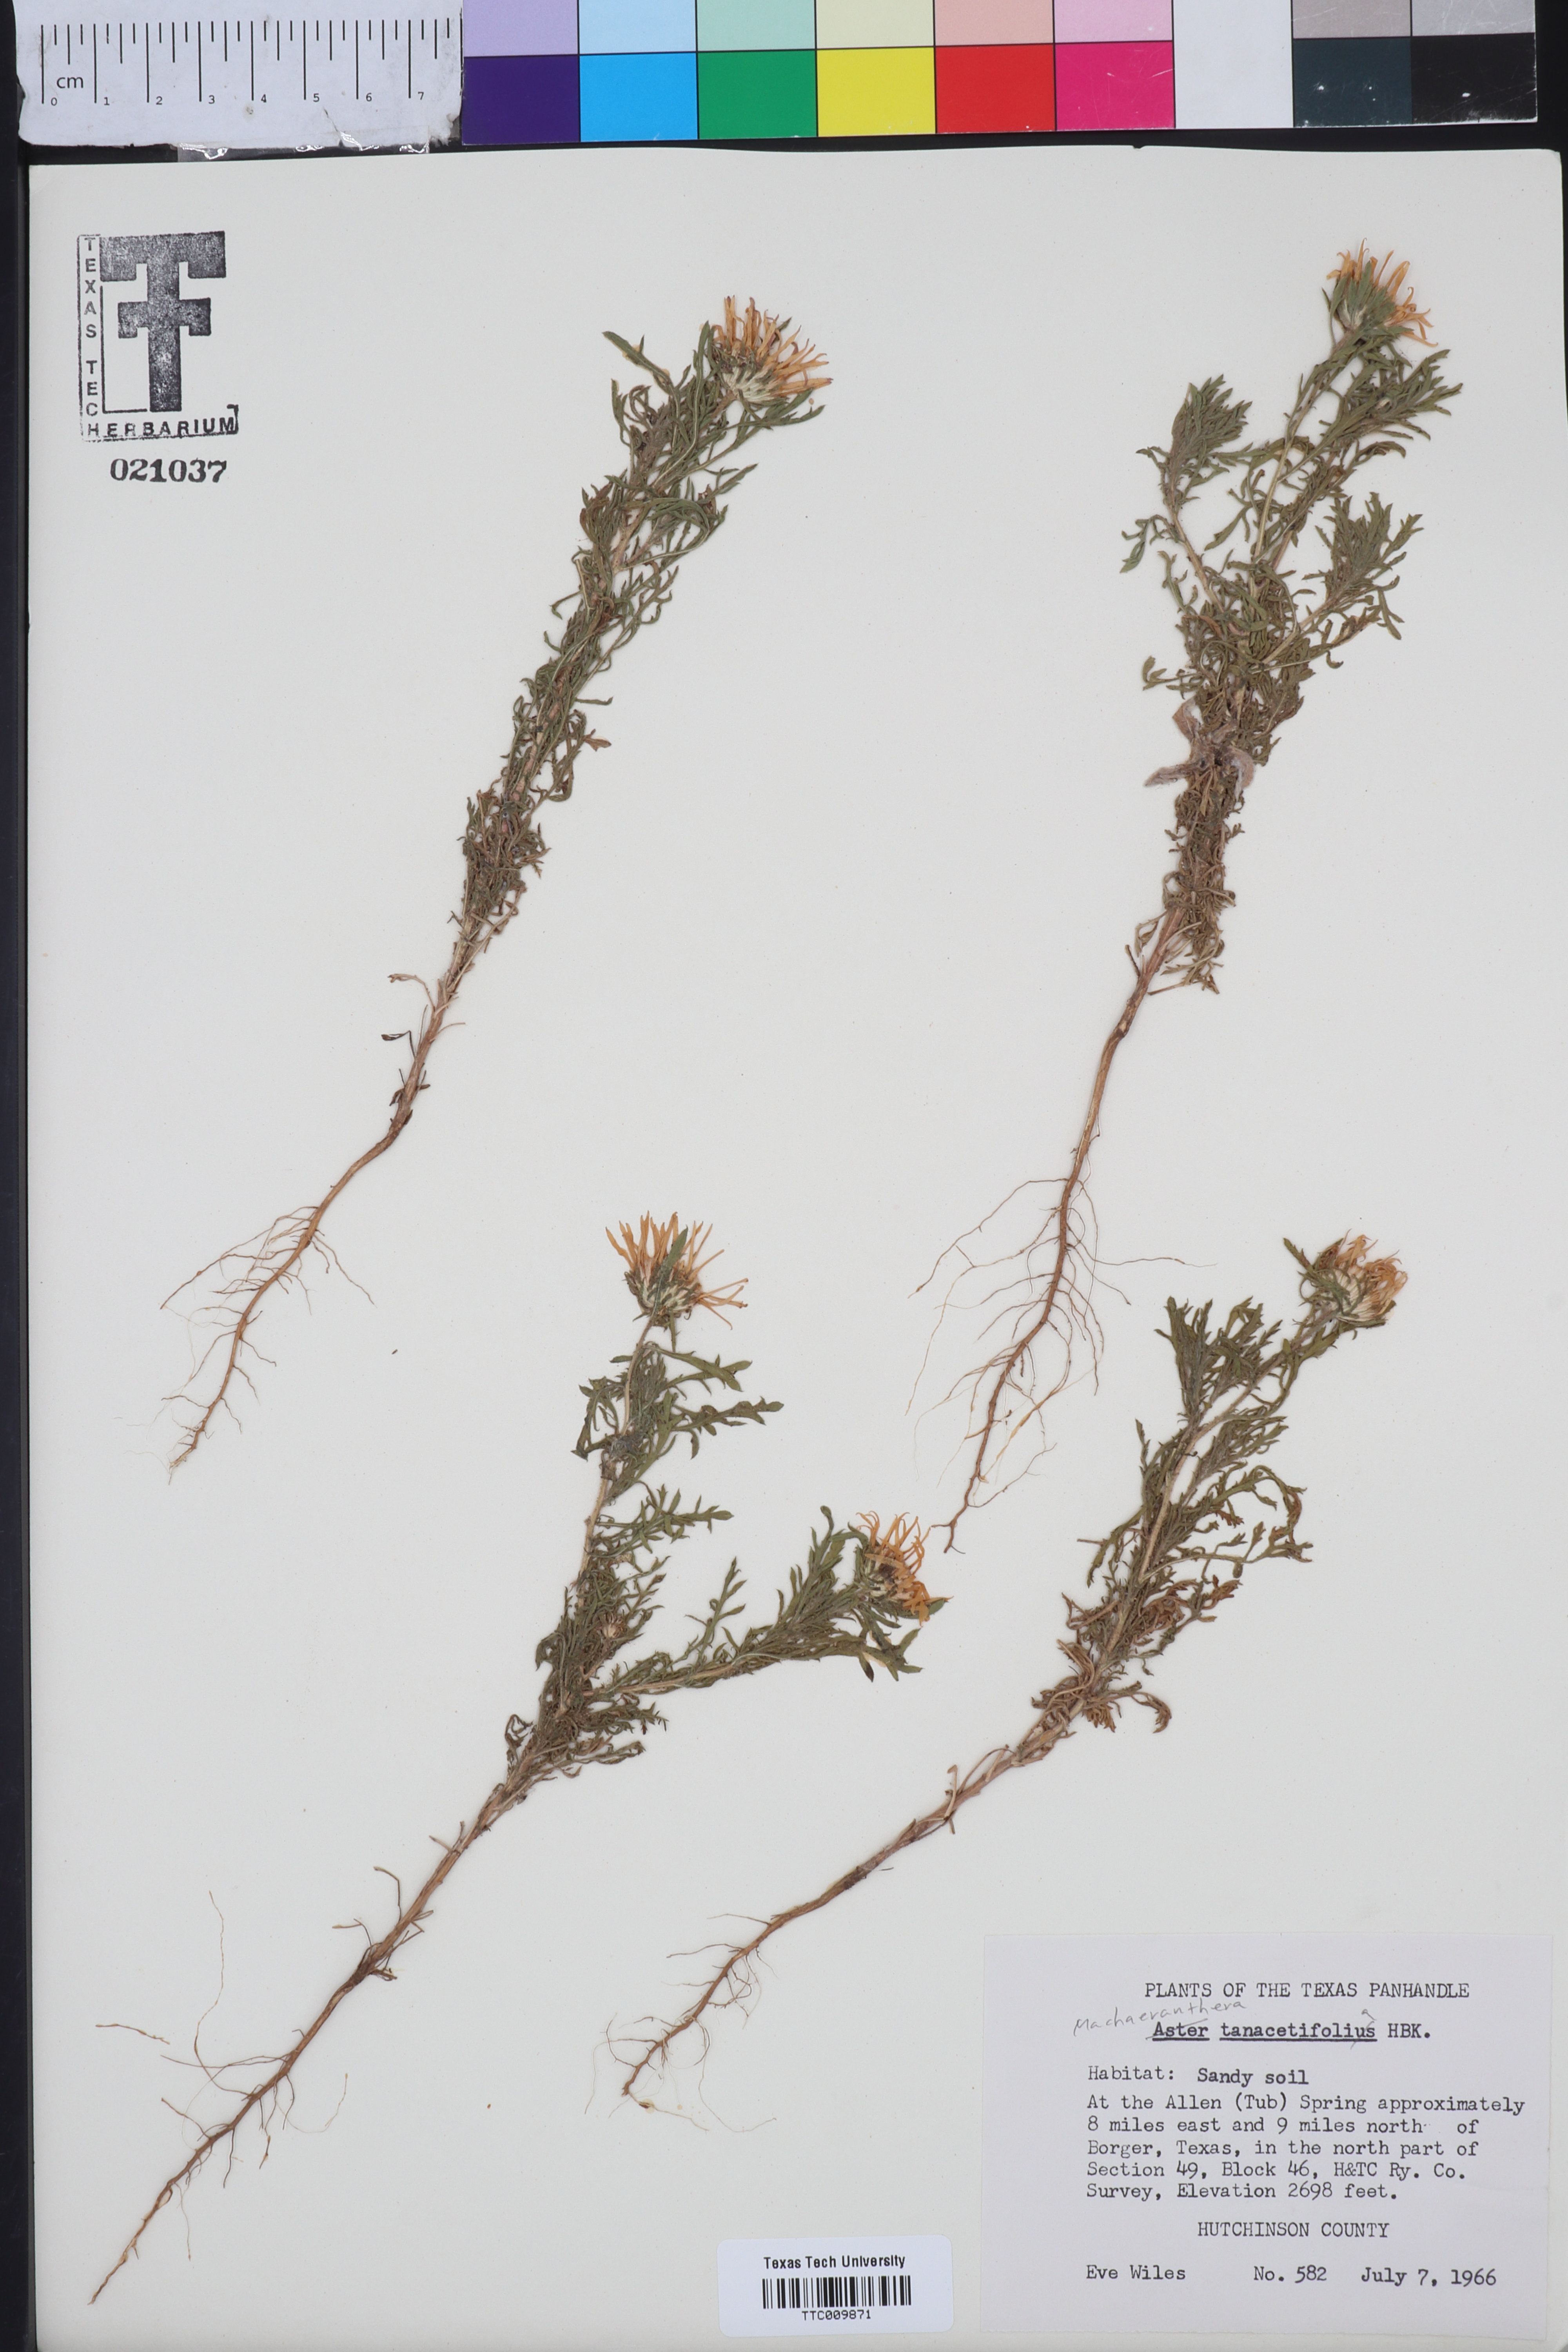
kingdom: Plantae
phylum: Tracheophyta
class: Magnoliopsida
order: Asterales
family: Asteraceae
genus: Machaeranthera
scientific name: Machaeranthera tanacetifolia
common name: Tansy-aster
